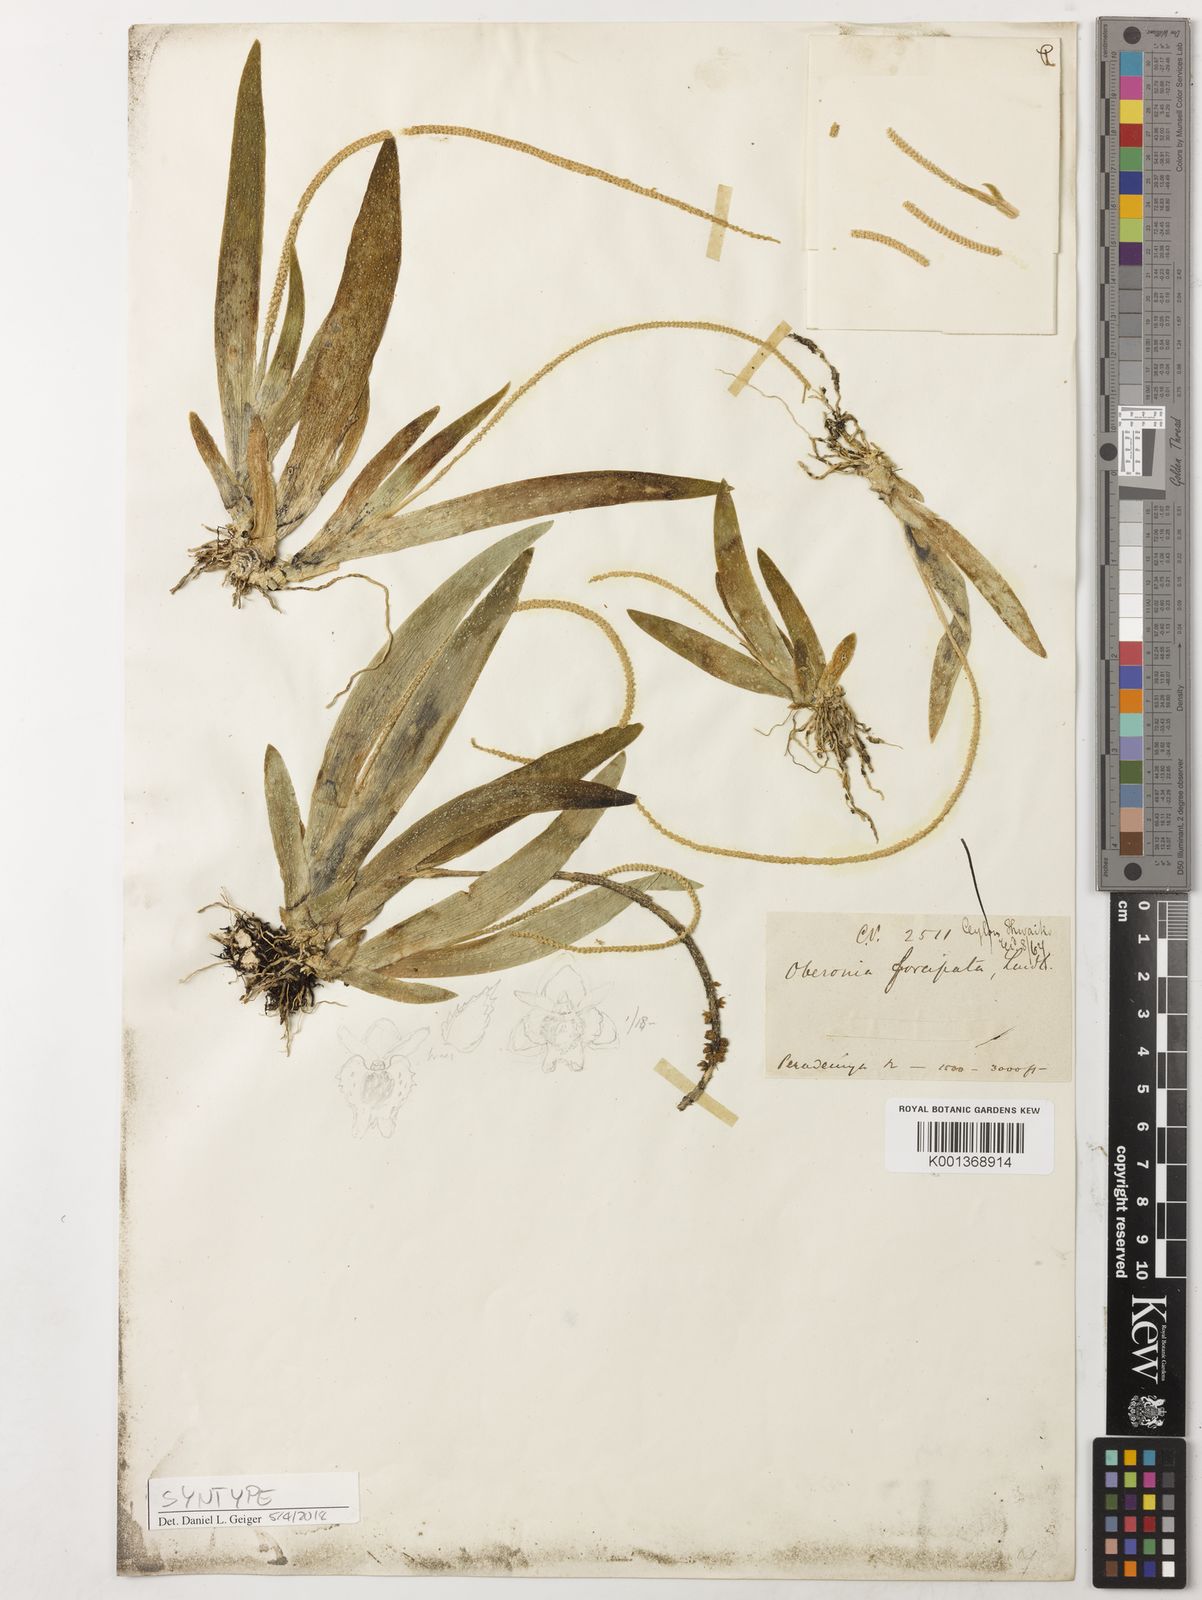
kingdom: Plantae
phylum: Tracheophyta
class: Liliopsida
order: Asparagales
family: Orchidaceae
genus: Oberonia
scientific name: Oberonia forcipata
